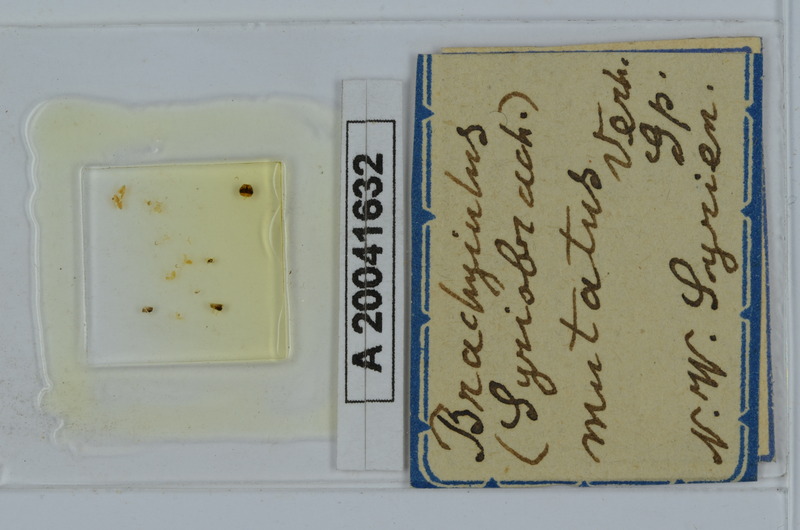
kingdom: Animalia
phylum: Arthropoda
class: Diplopoda
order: Julida
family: Julidae
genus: Brachyiulus
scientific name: Brachyiulus
